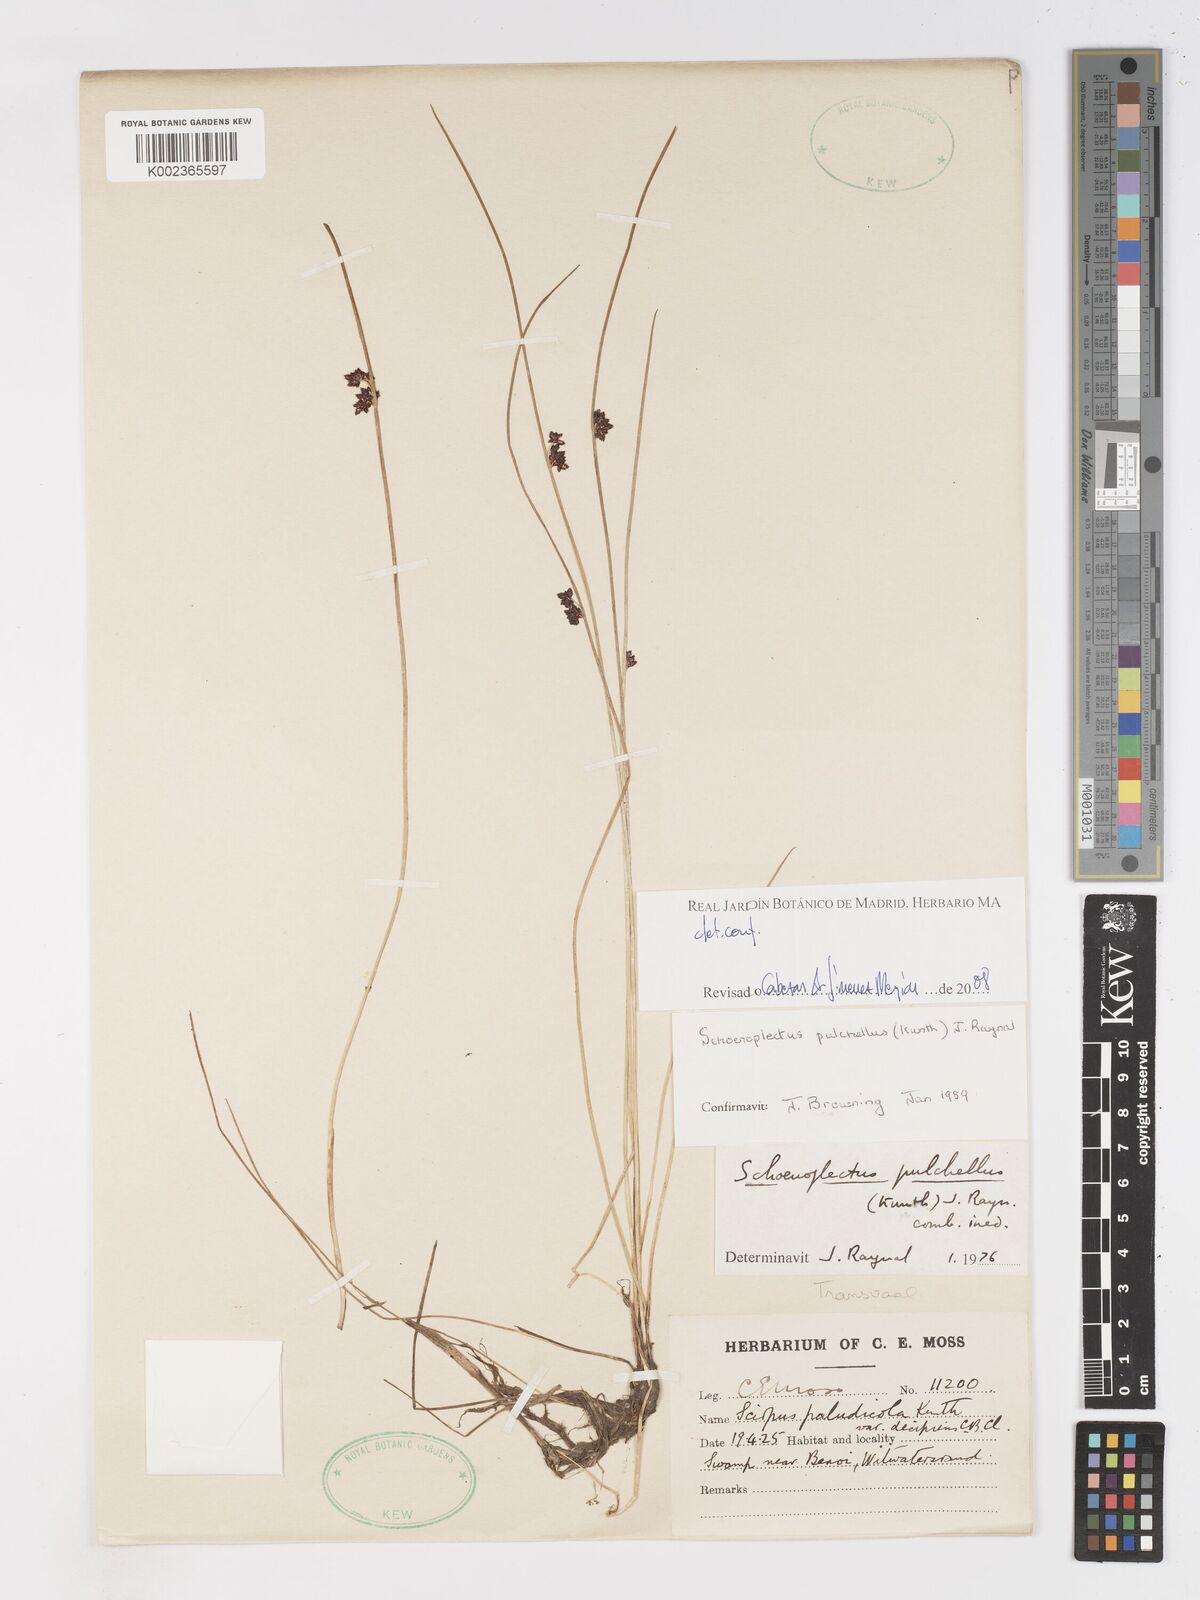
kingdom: Plantae
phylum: Tracheophyta
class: Liliopsida
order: Poales
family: Cyperaceae
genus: Schoenoplectiella
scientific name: Schoenoplectiella pulchella
